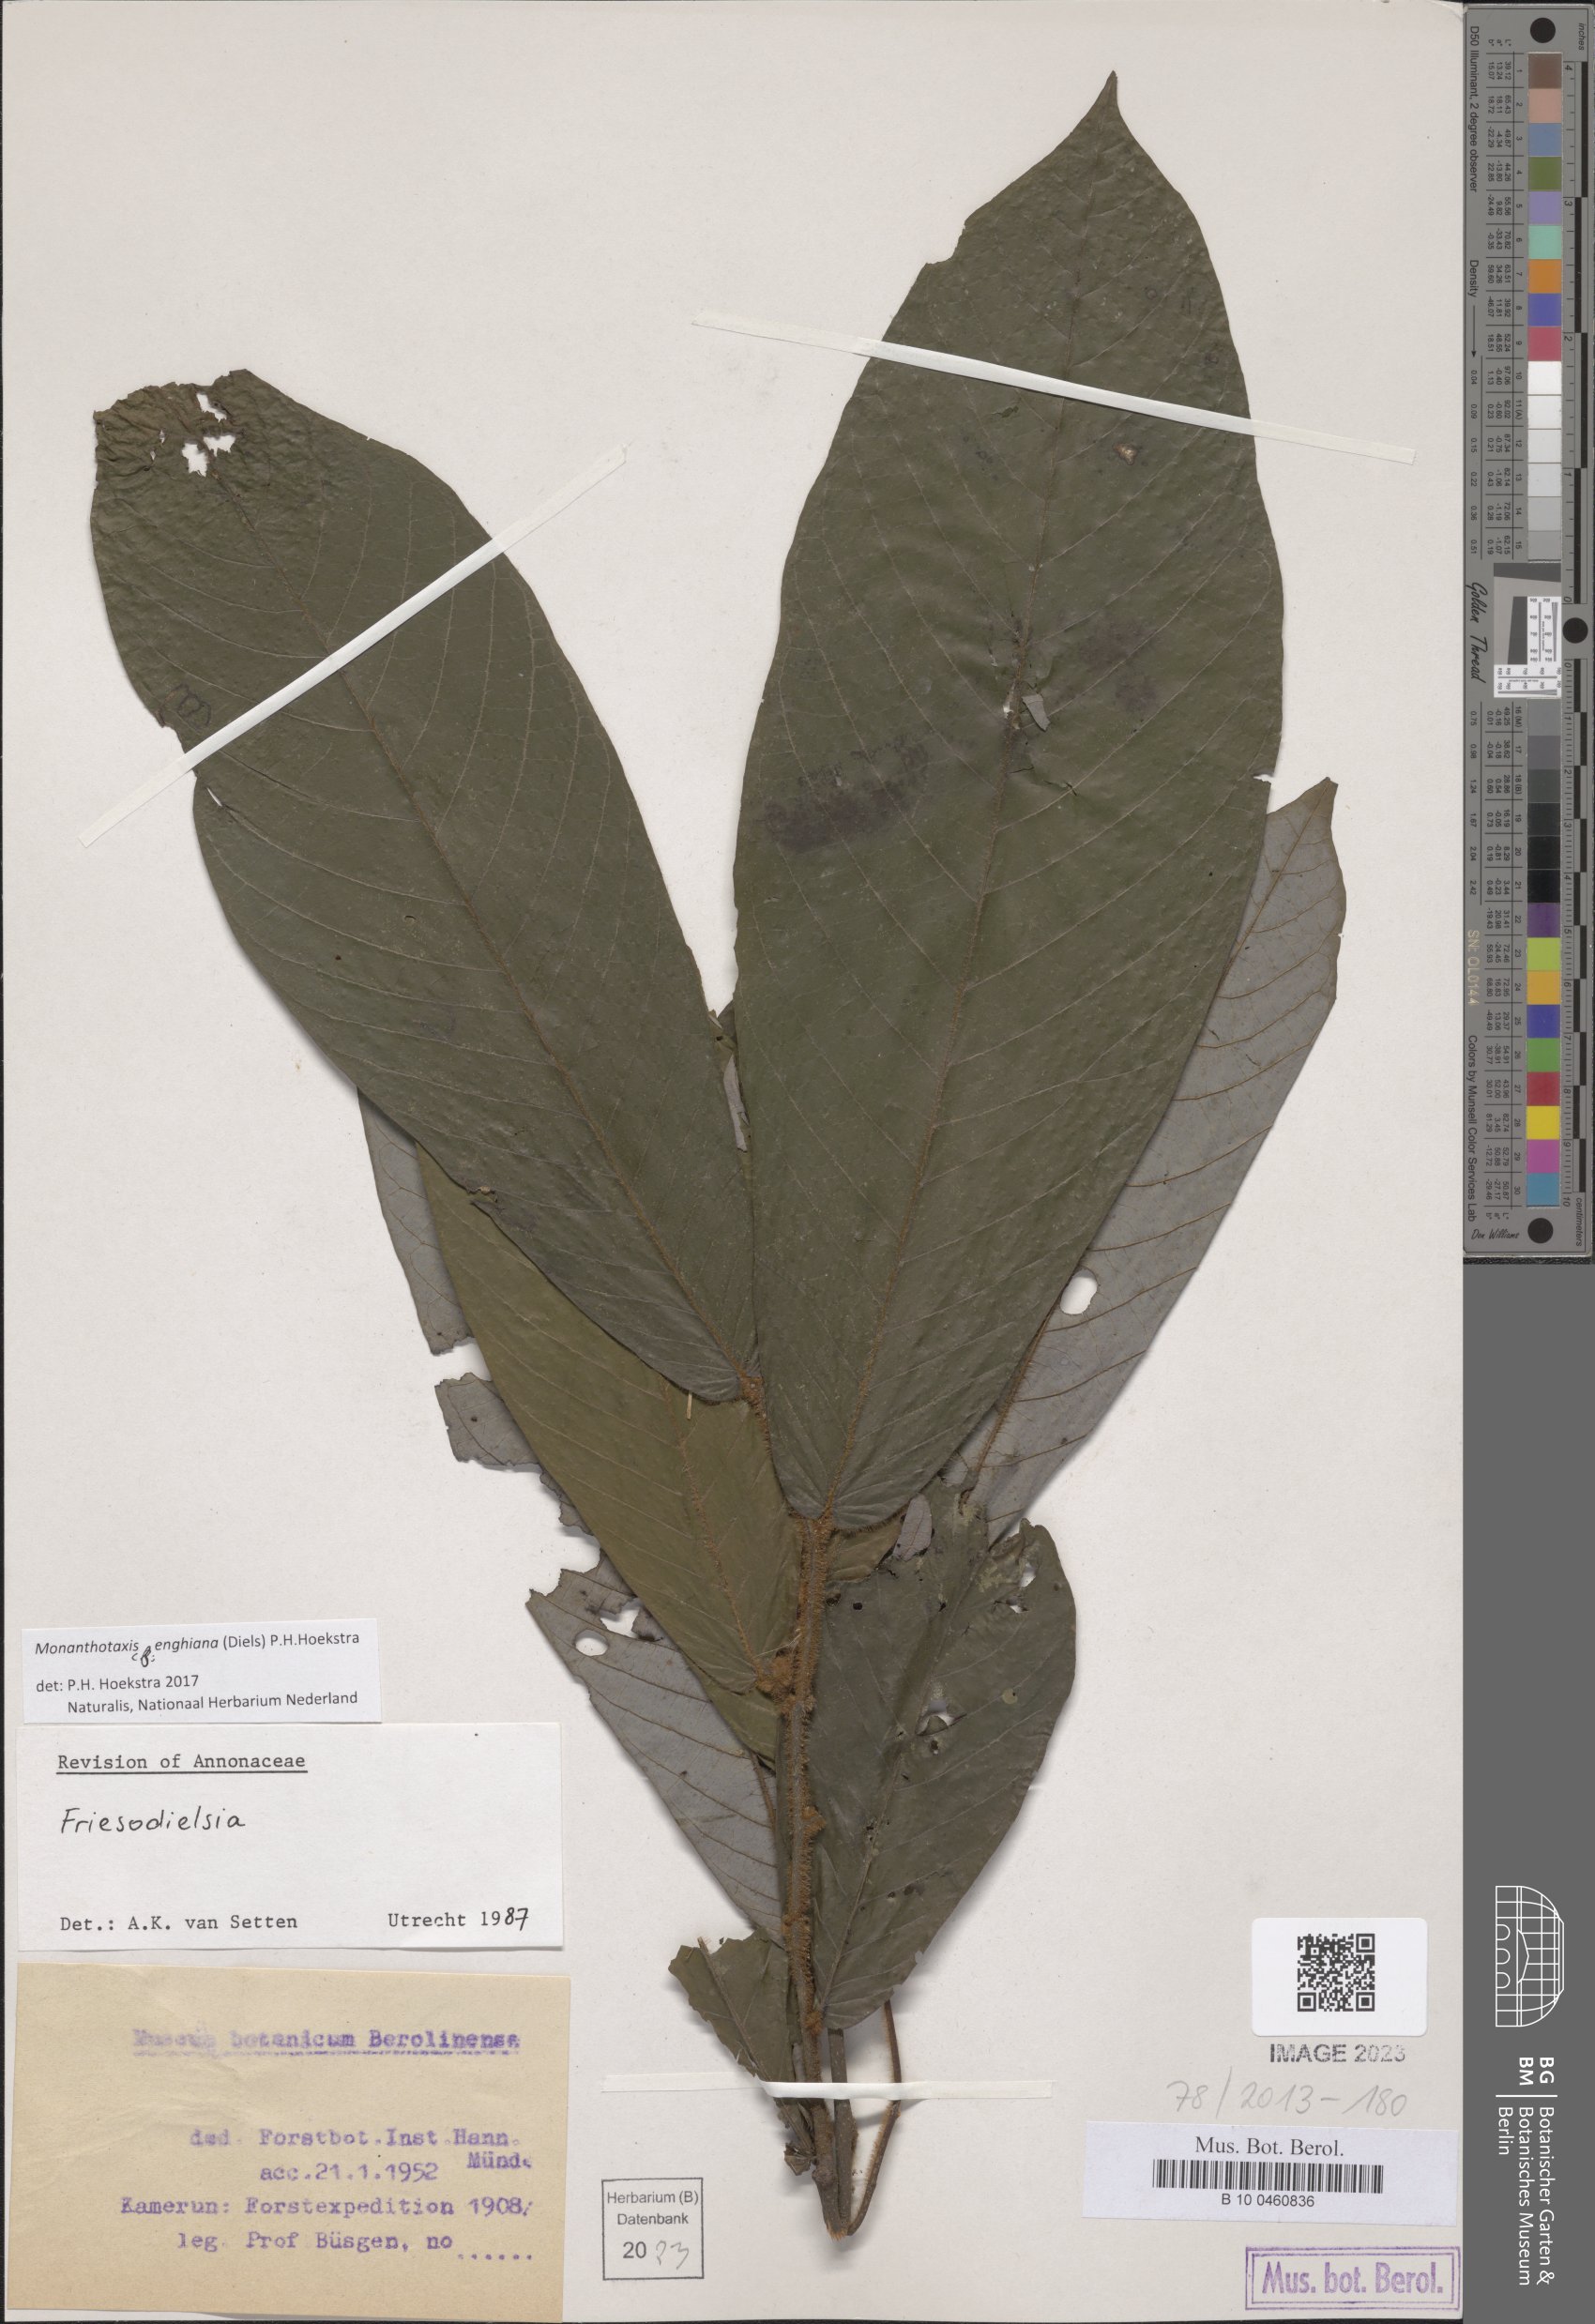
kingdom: Plantae
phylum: Tracheophyta
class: Magnoliopsida
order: Magnoliales
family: Annonaceae
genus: Friesodielsia
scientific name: Friesodielsia enghiana
